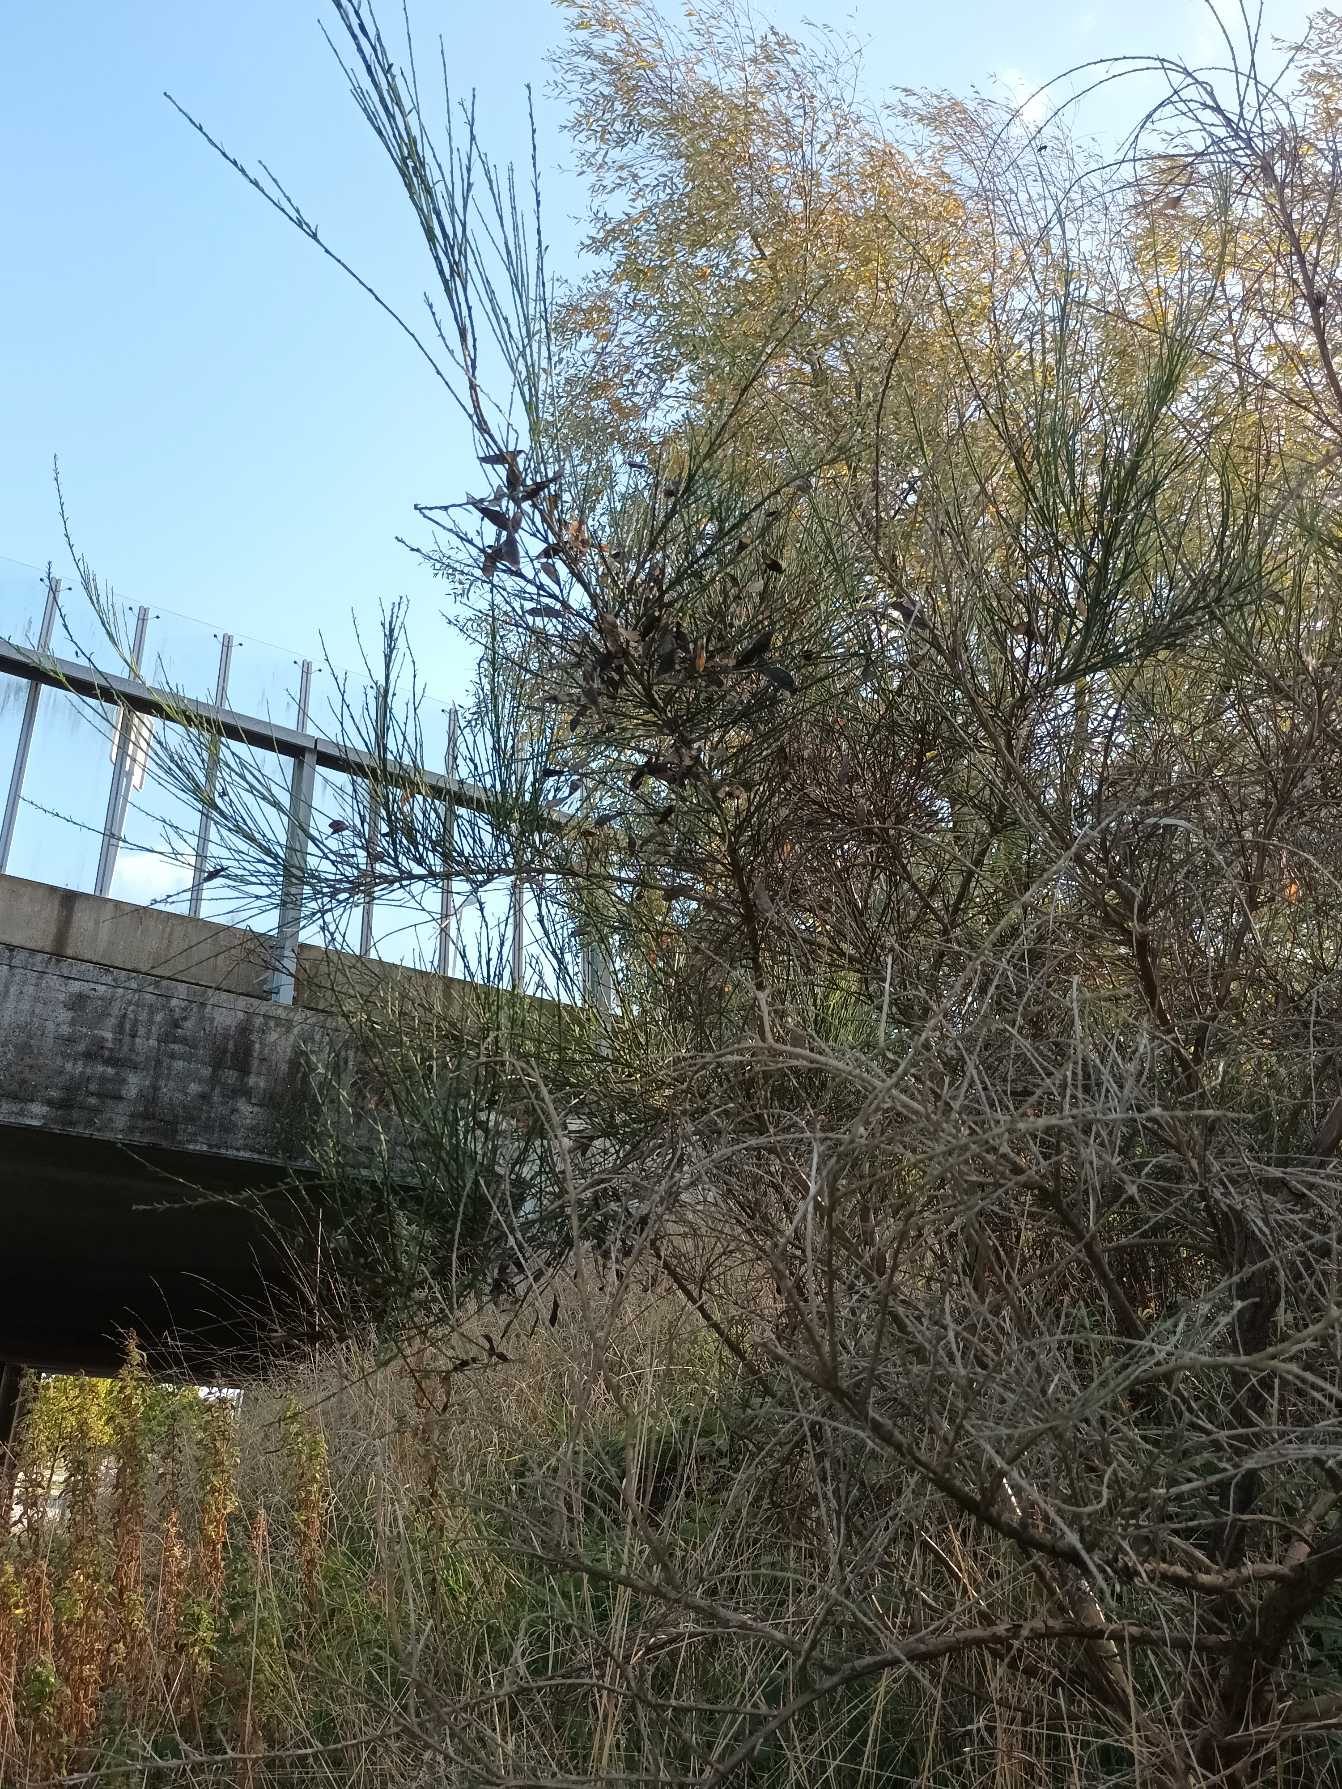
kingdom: Plantae
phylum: Tracheophyta
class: Magnoliopsida
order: Fabales
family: Fabaceae
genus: Cytisus
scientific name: Cytisus scoparius
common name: Almindelig gyvel
